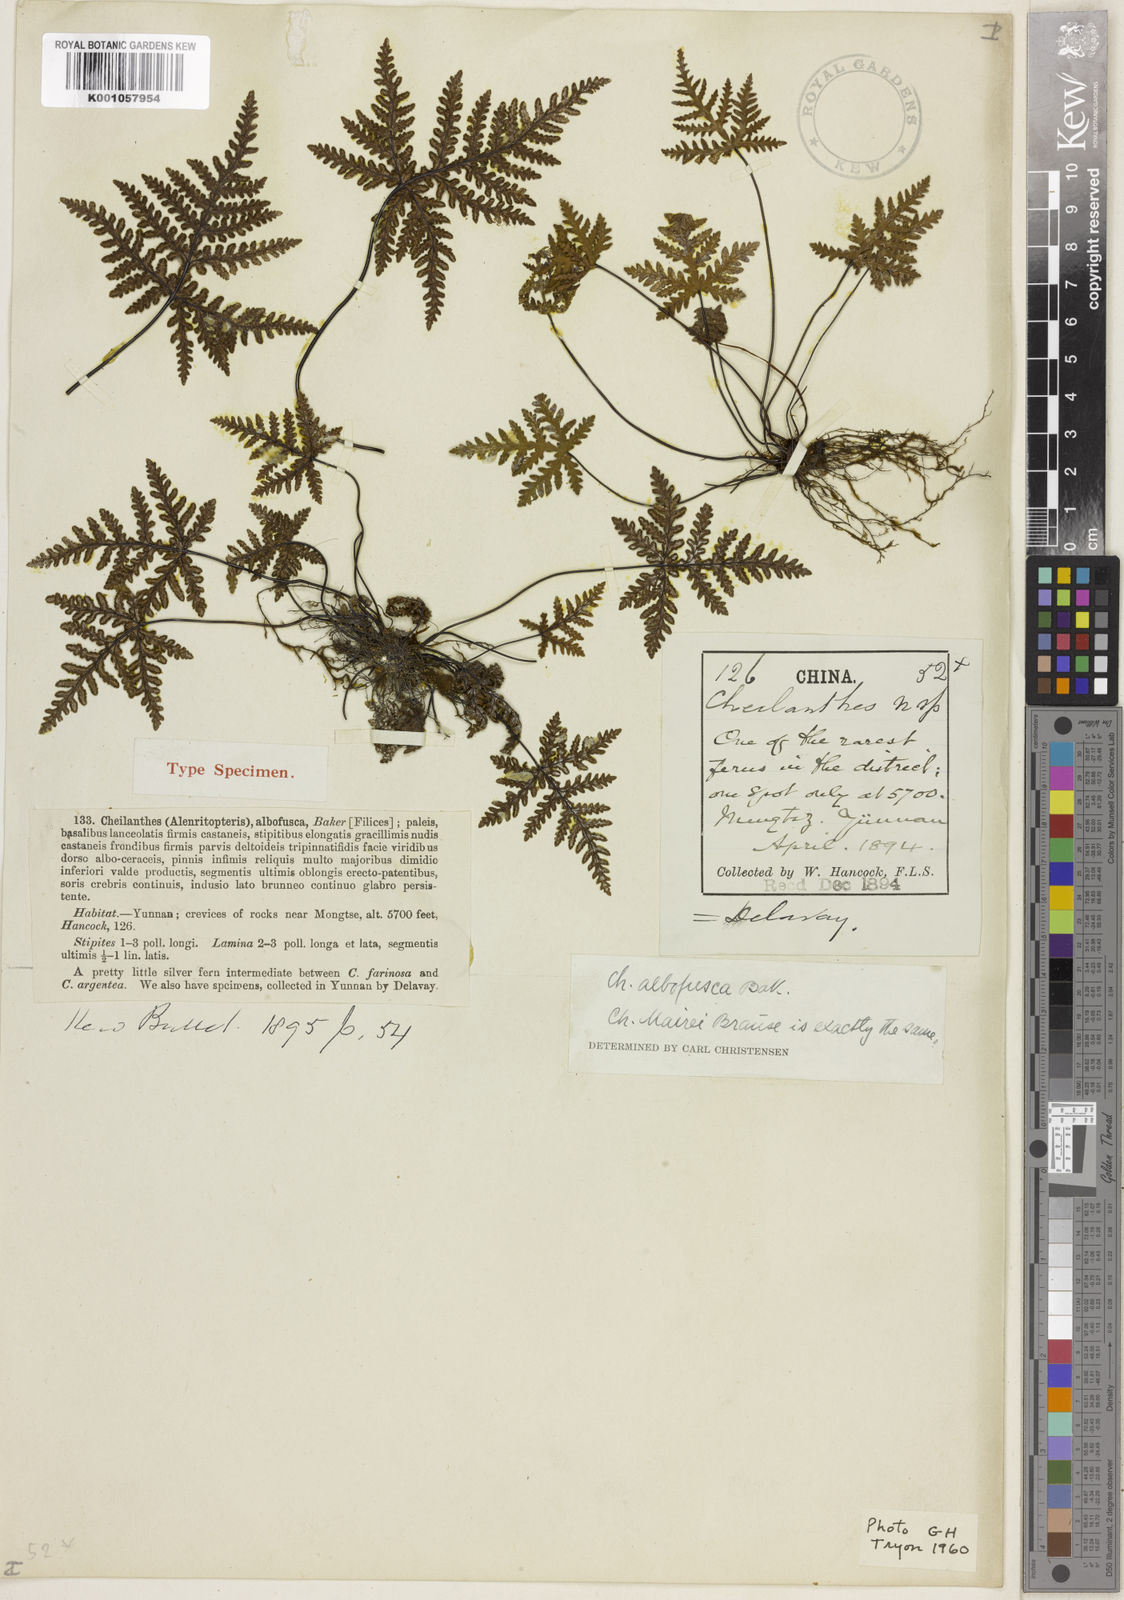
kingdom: Plantae
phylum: Tracheophyta
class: Polypodiopsida
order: Polypodiales
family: Pteridaceae
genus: Aleuritopteris
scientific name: Aleuritopteris albofusca
